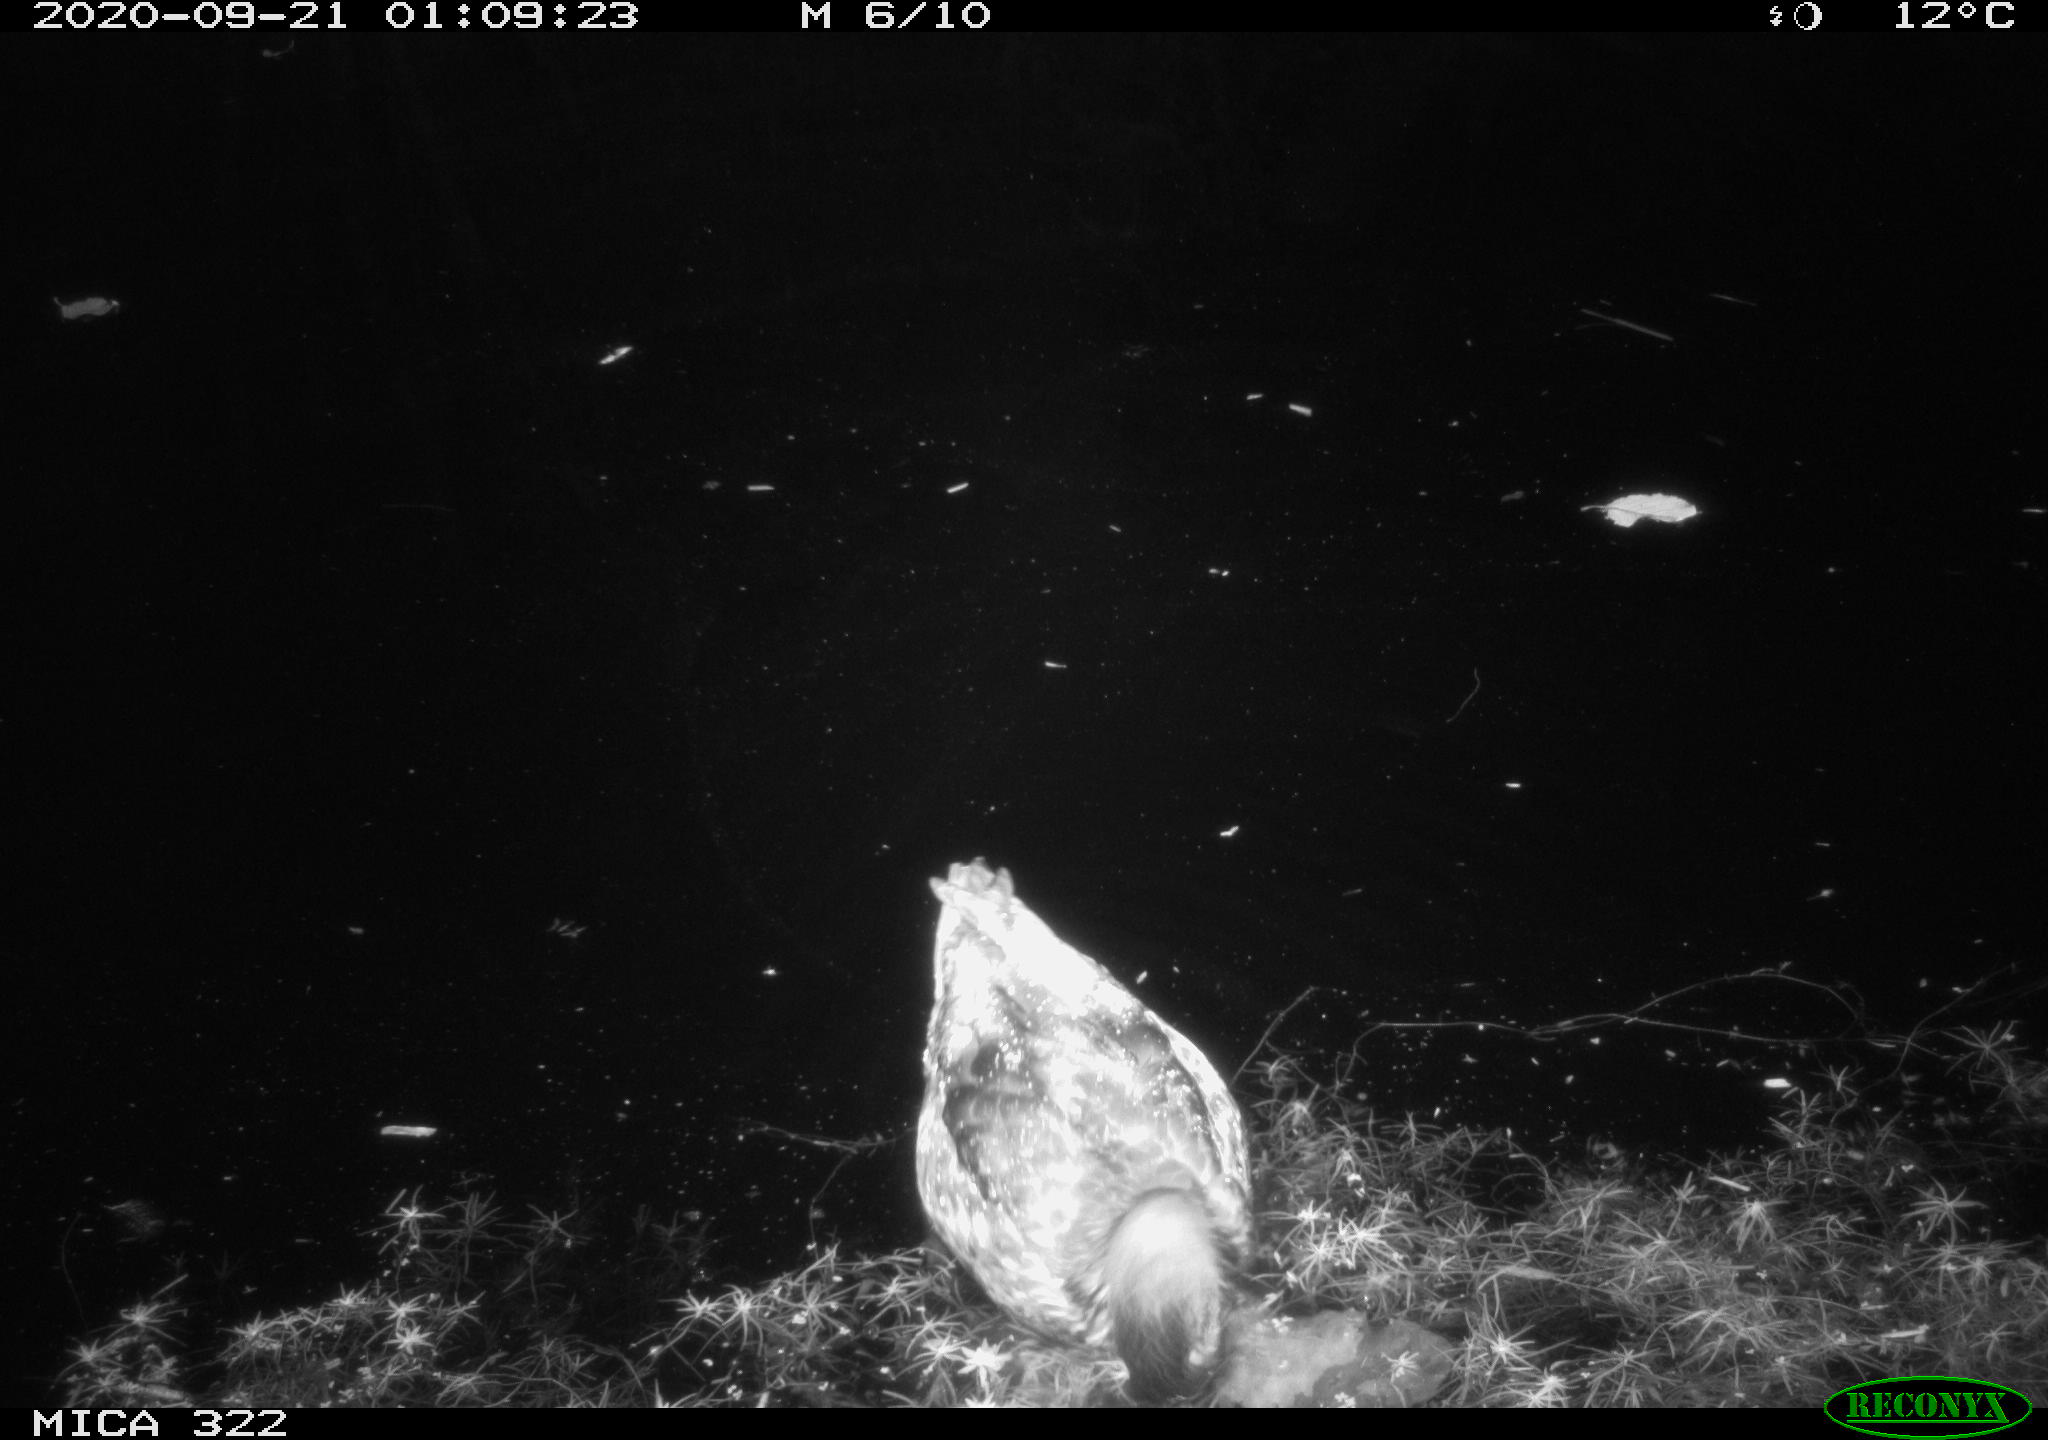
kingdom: Animalia
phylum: Chordata
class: Aves
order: Anseriformes
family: Anatidae
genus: Anas
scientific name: Anas platyrhynchos
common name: Mallard
